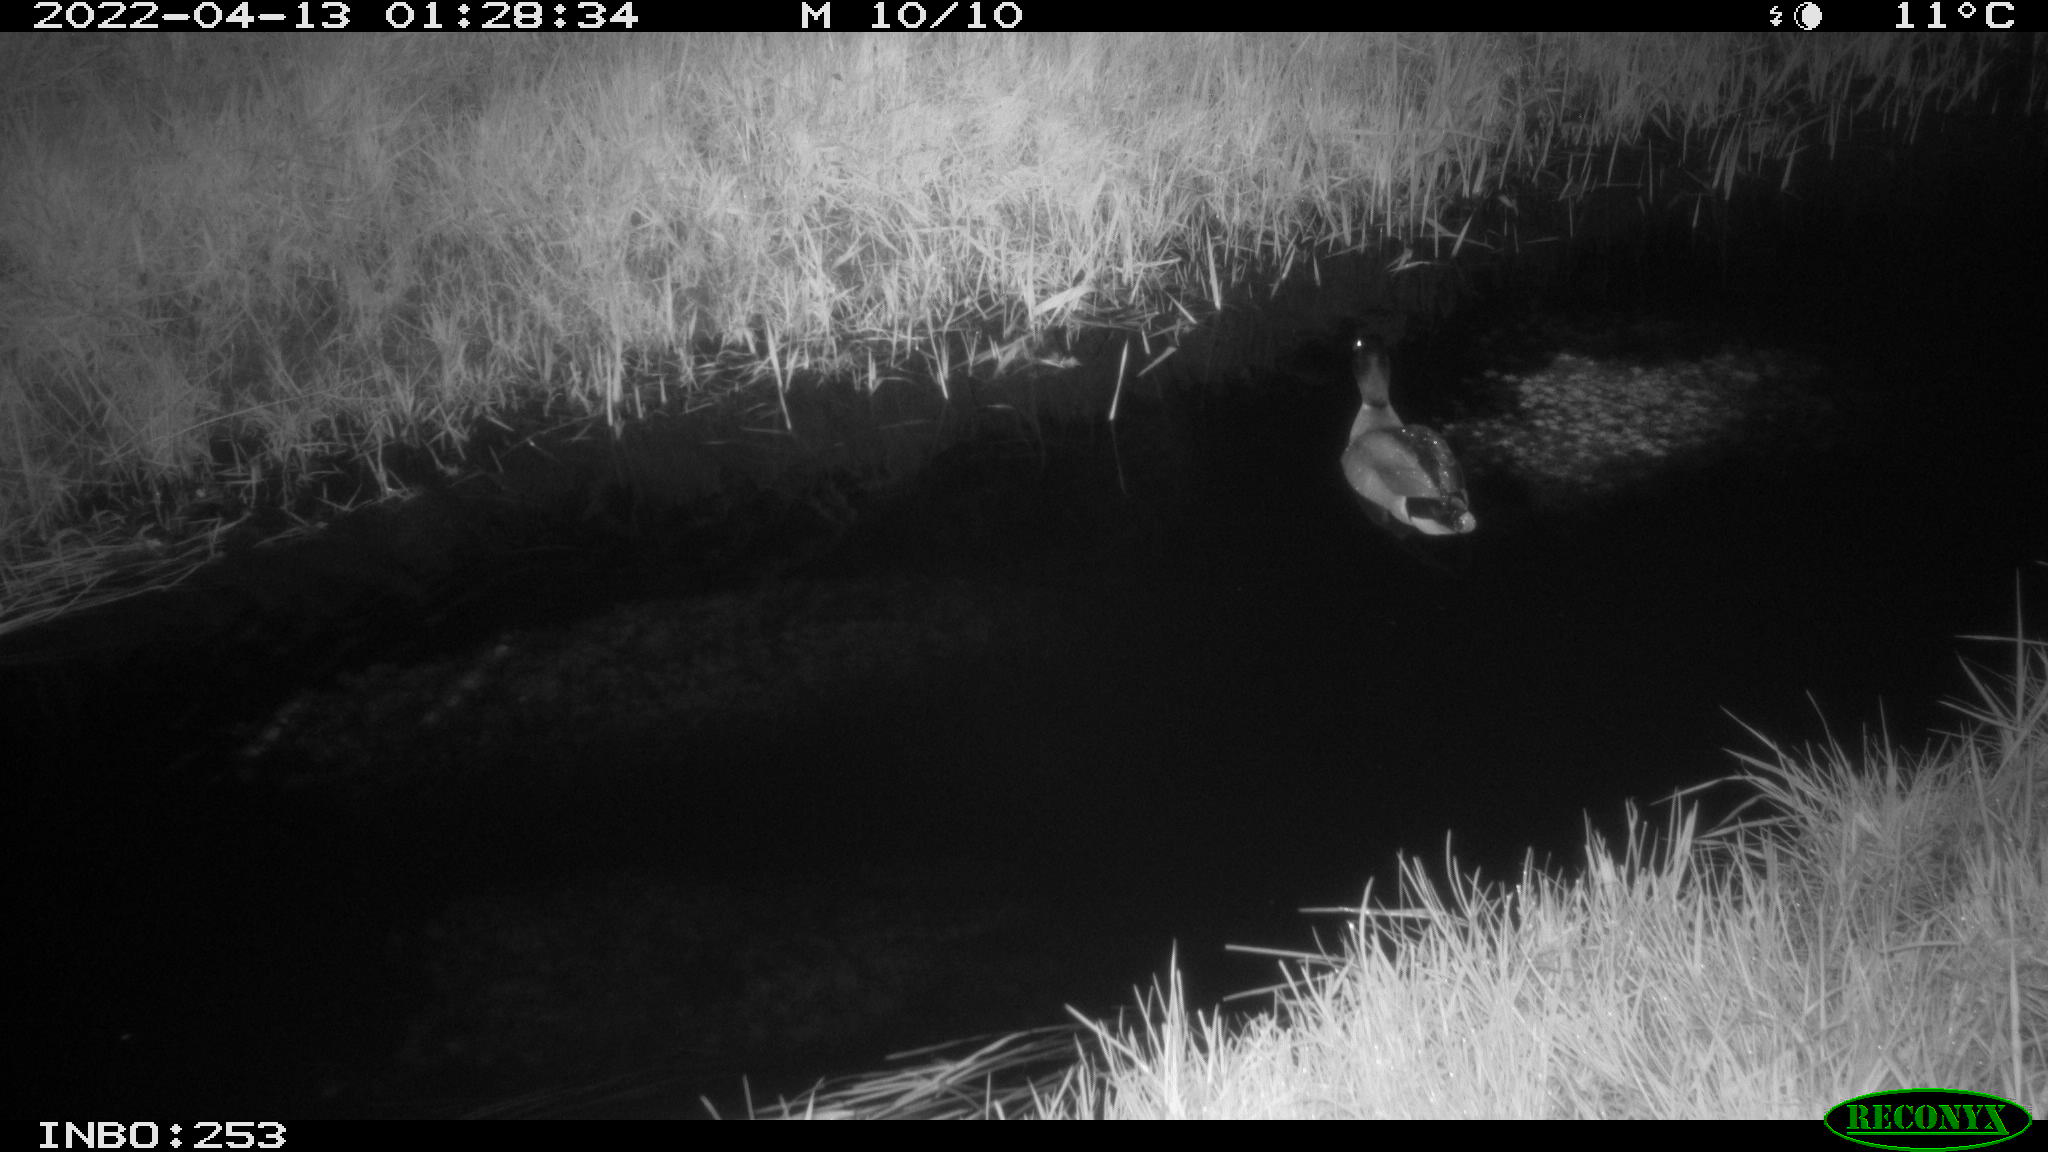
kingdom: Animalia
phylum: Chordata
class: Aves
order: Anseriformes
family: Anatidae
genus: Anas
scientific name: Anas platyrhynchos
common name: Mallard
